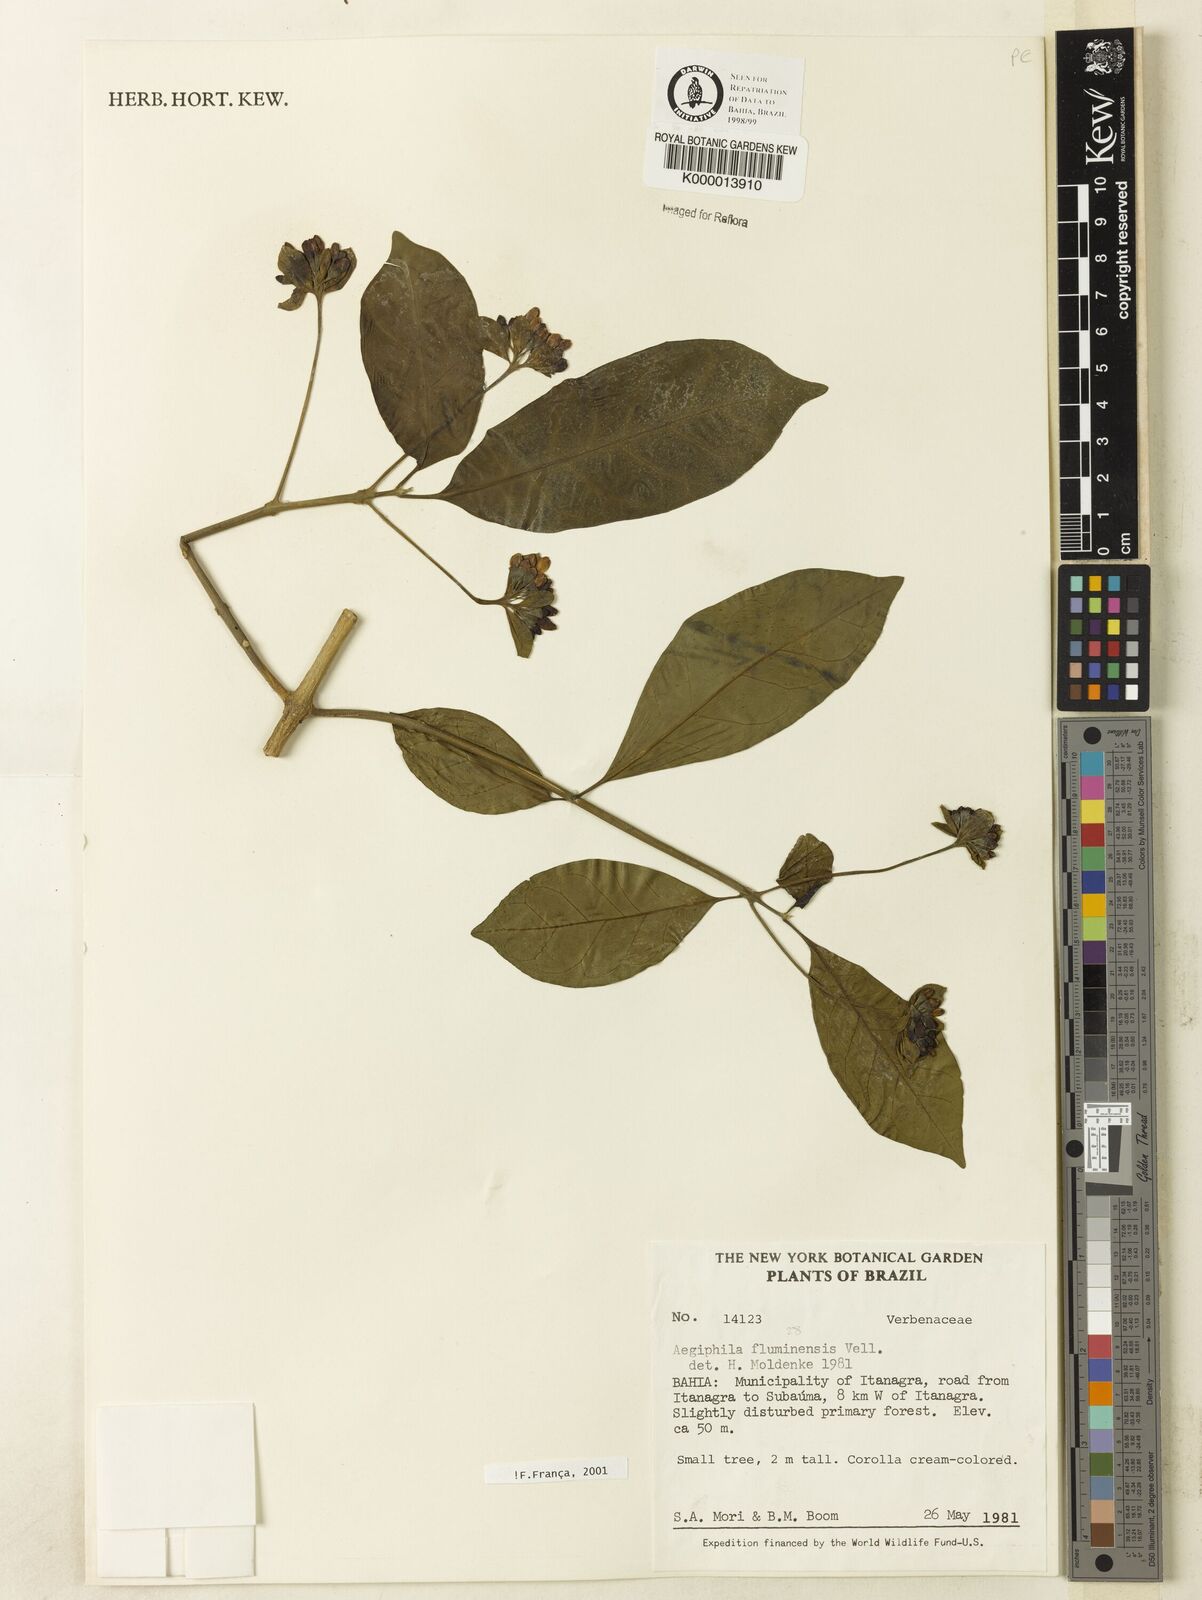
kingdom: Plantae
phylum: Tracheophyta
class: Magnoliopsida
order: Lamiales
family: Lamiaceae
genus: Aegiphila
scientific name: Aegiphila fluminensis
